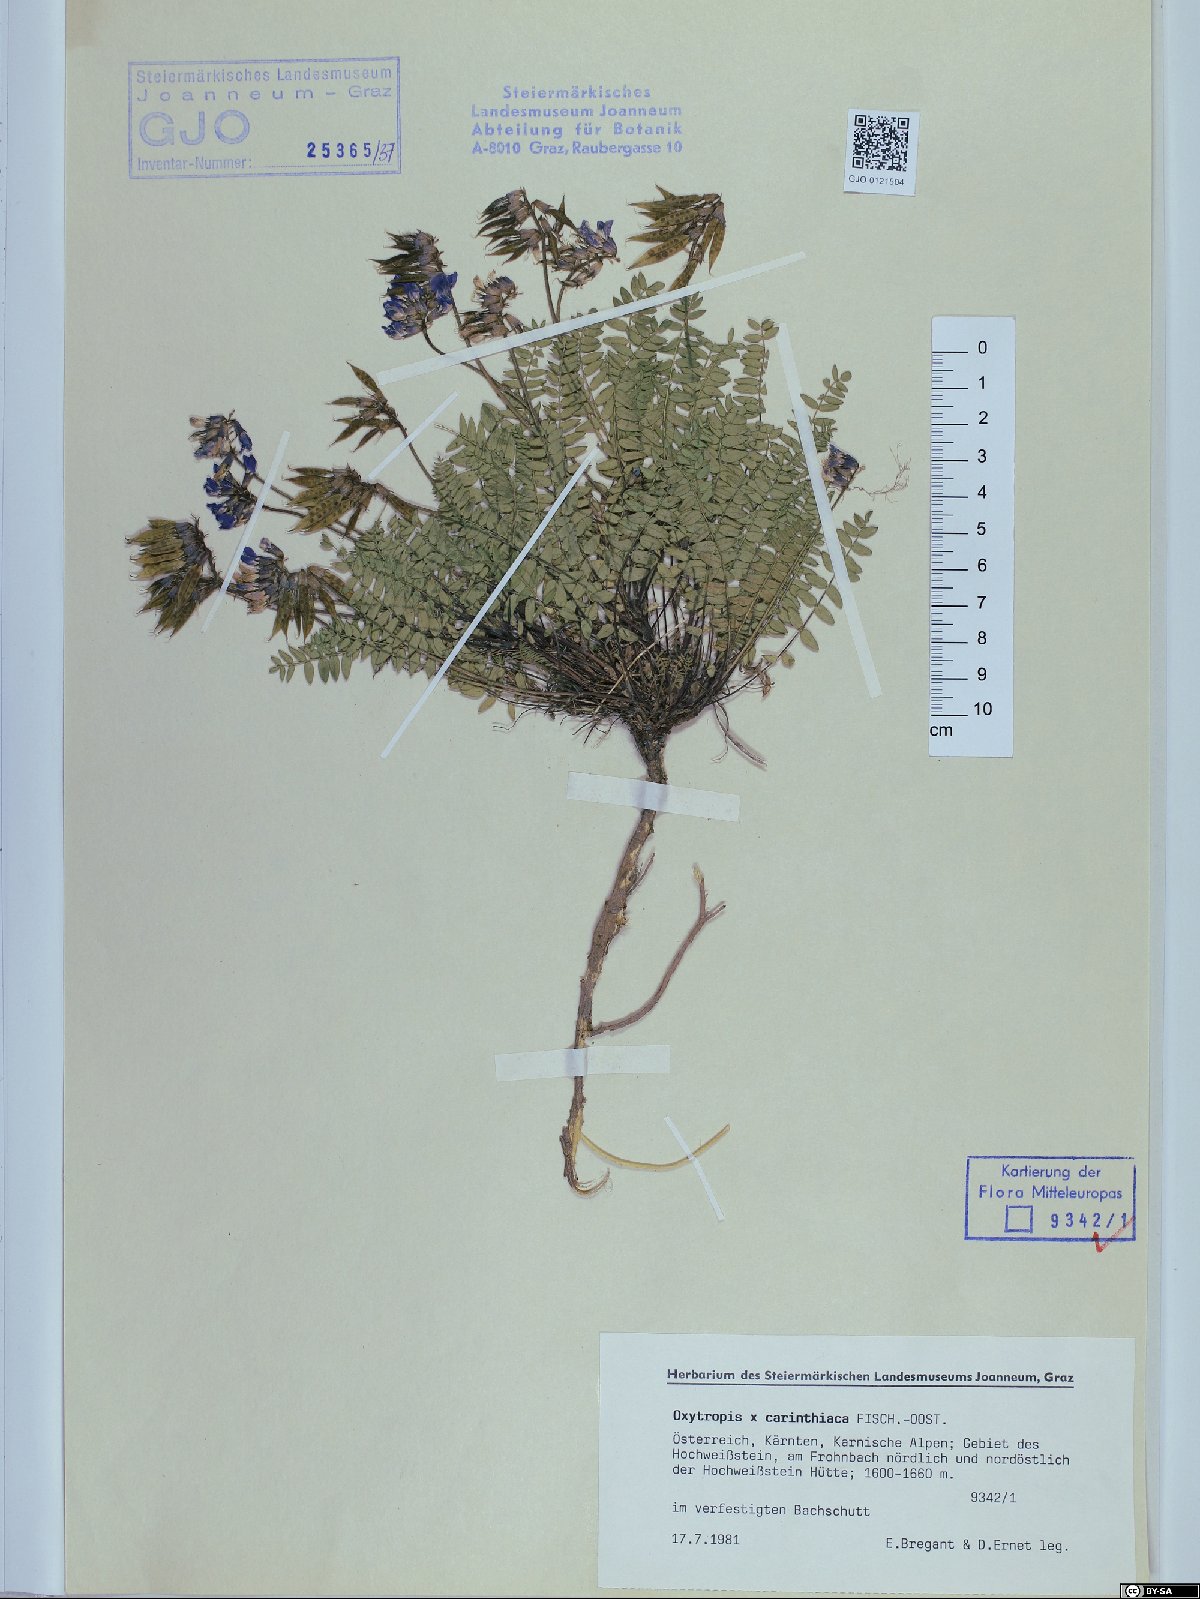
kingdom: Plantae
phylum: Tracheophyta
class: Magnoliopsida
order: Fabales
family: Fabaceae
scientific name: Fabaceae
